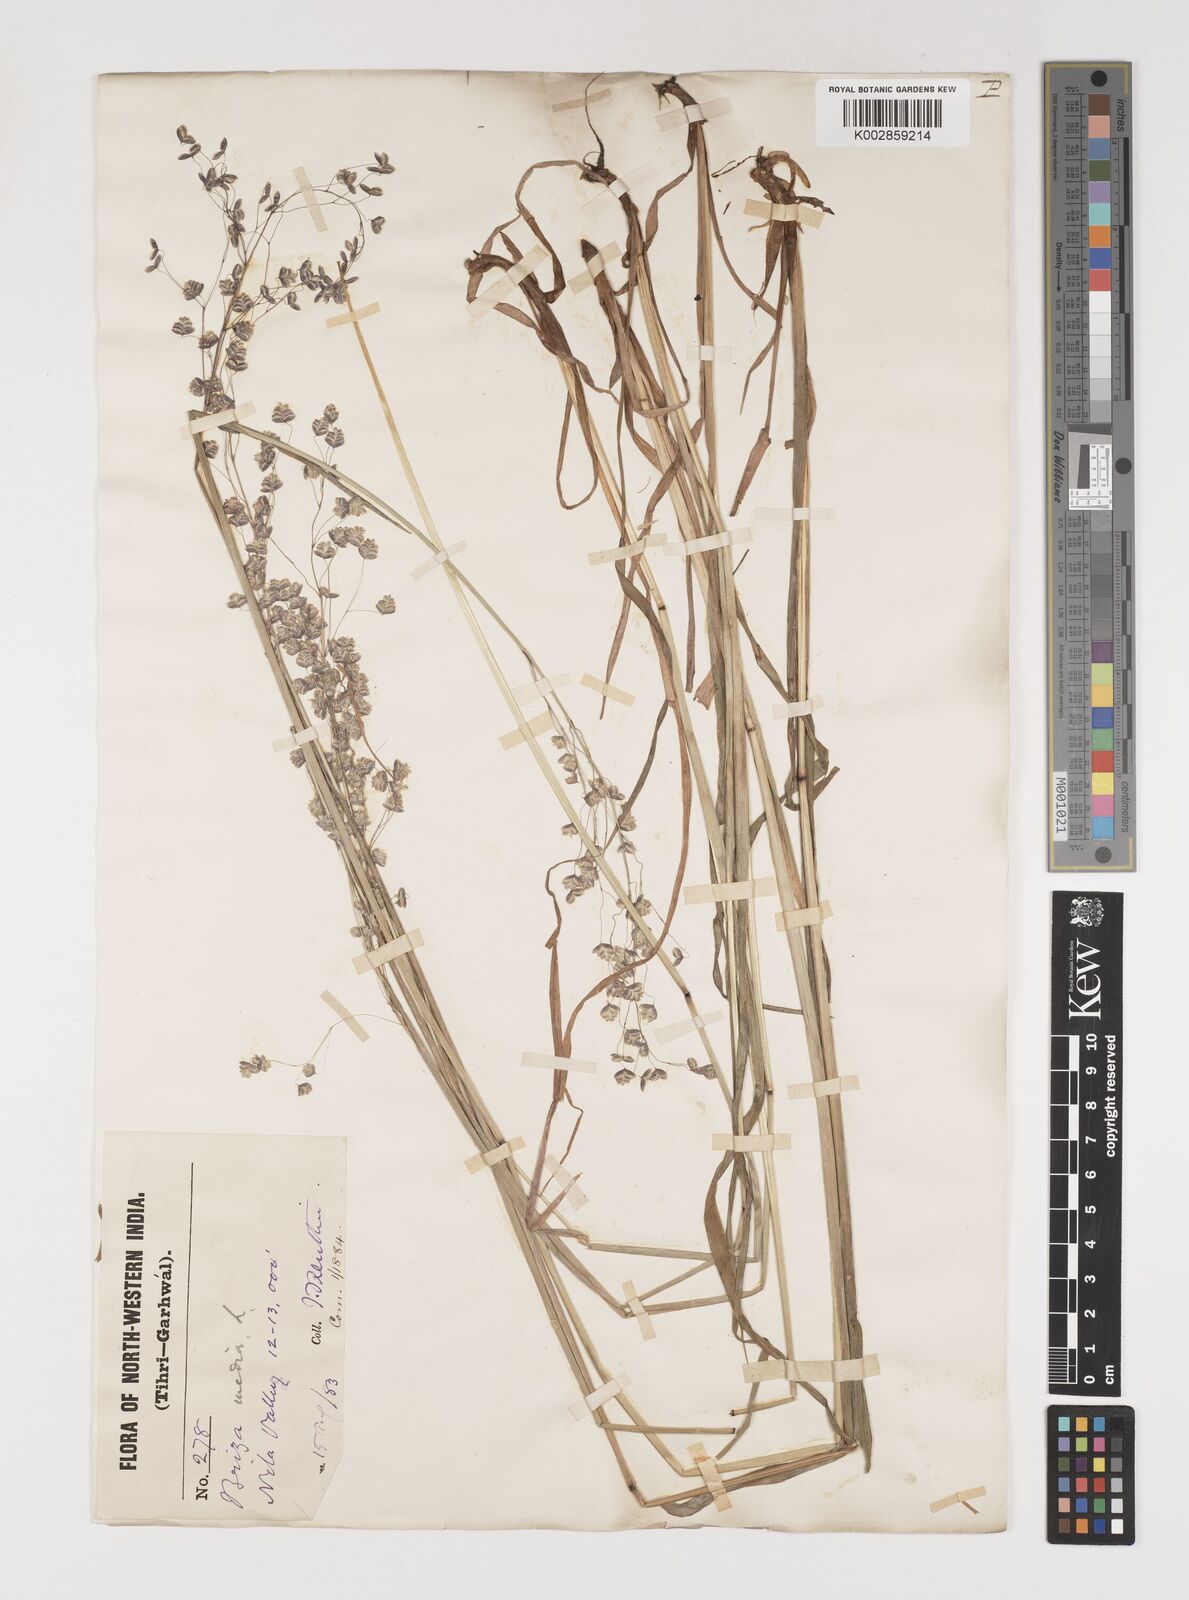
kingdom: Plantae
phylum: Tracheophyta
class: Liliopsida
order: Poales
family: Poaceae
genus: Briza
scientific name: Briza media
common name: Quaking grass
